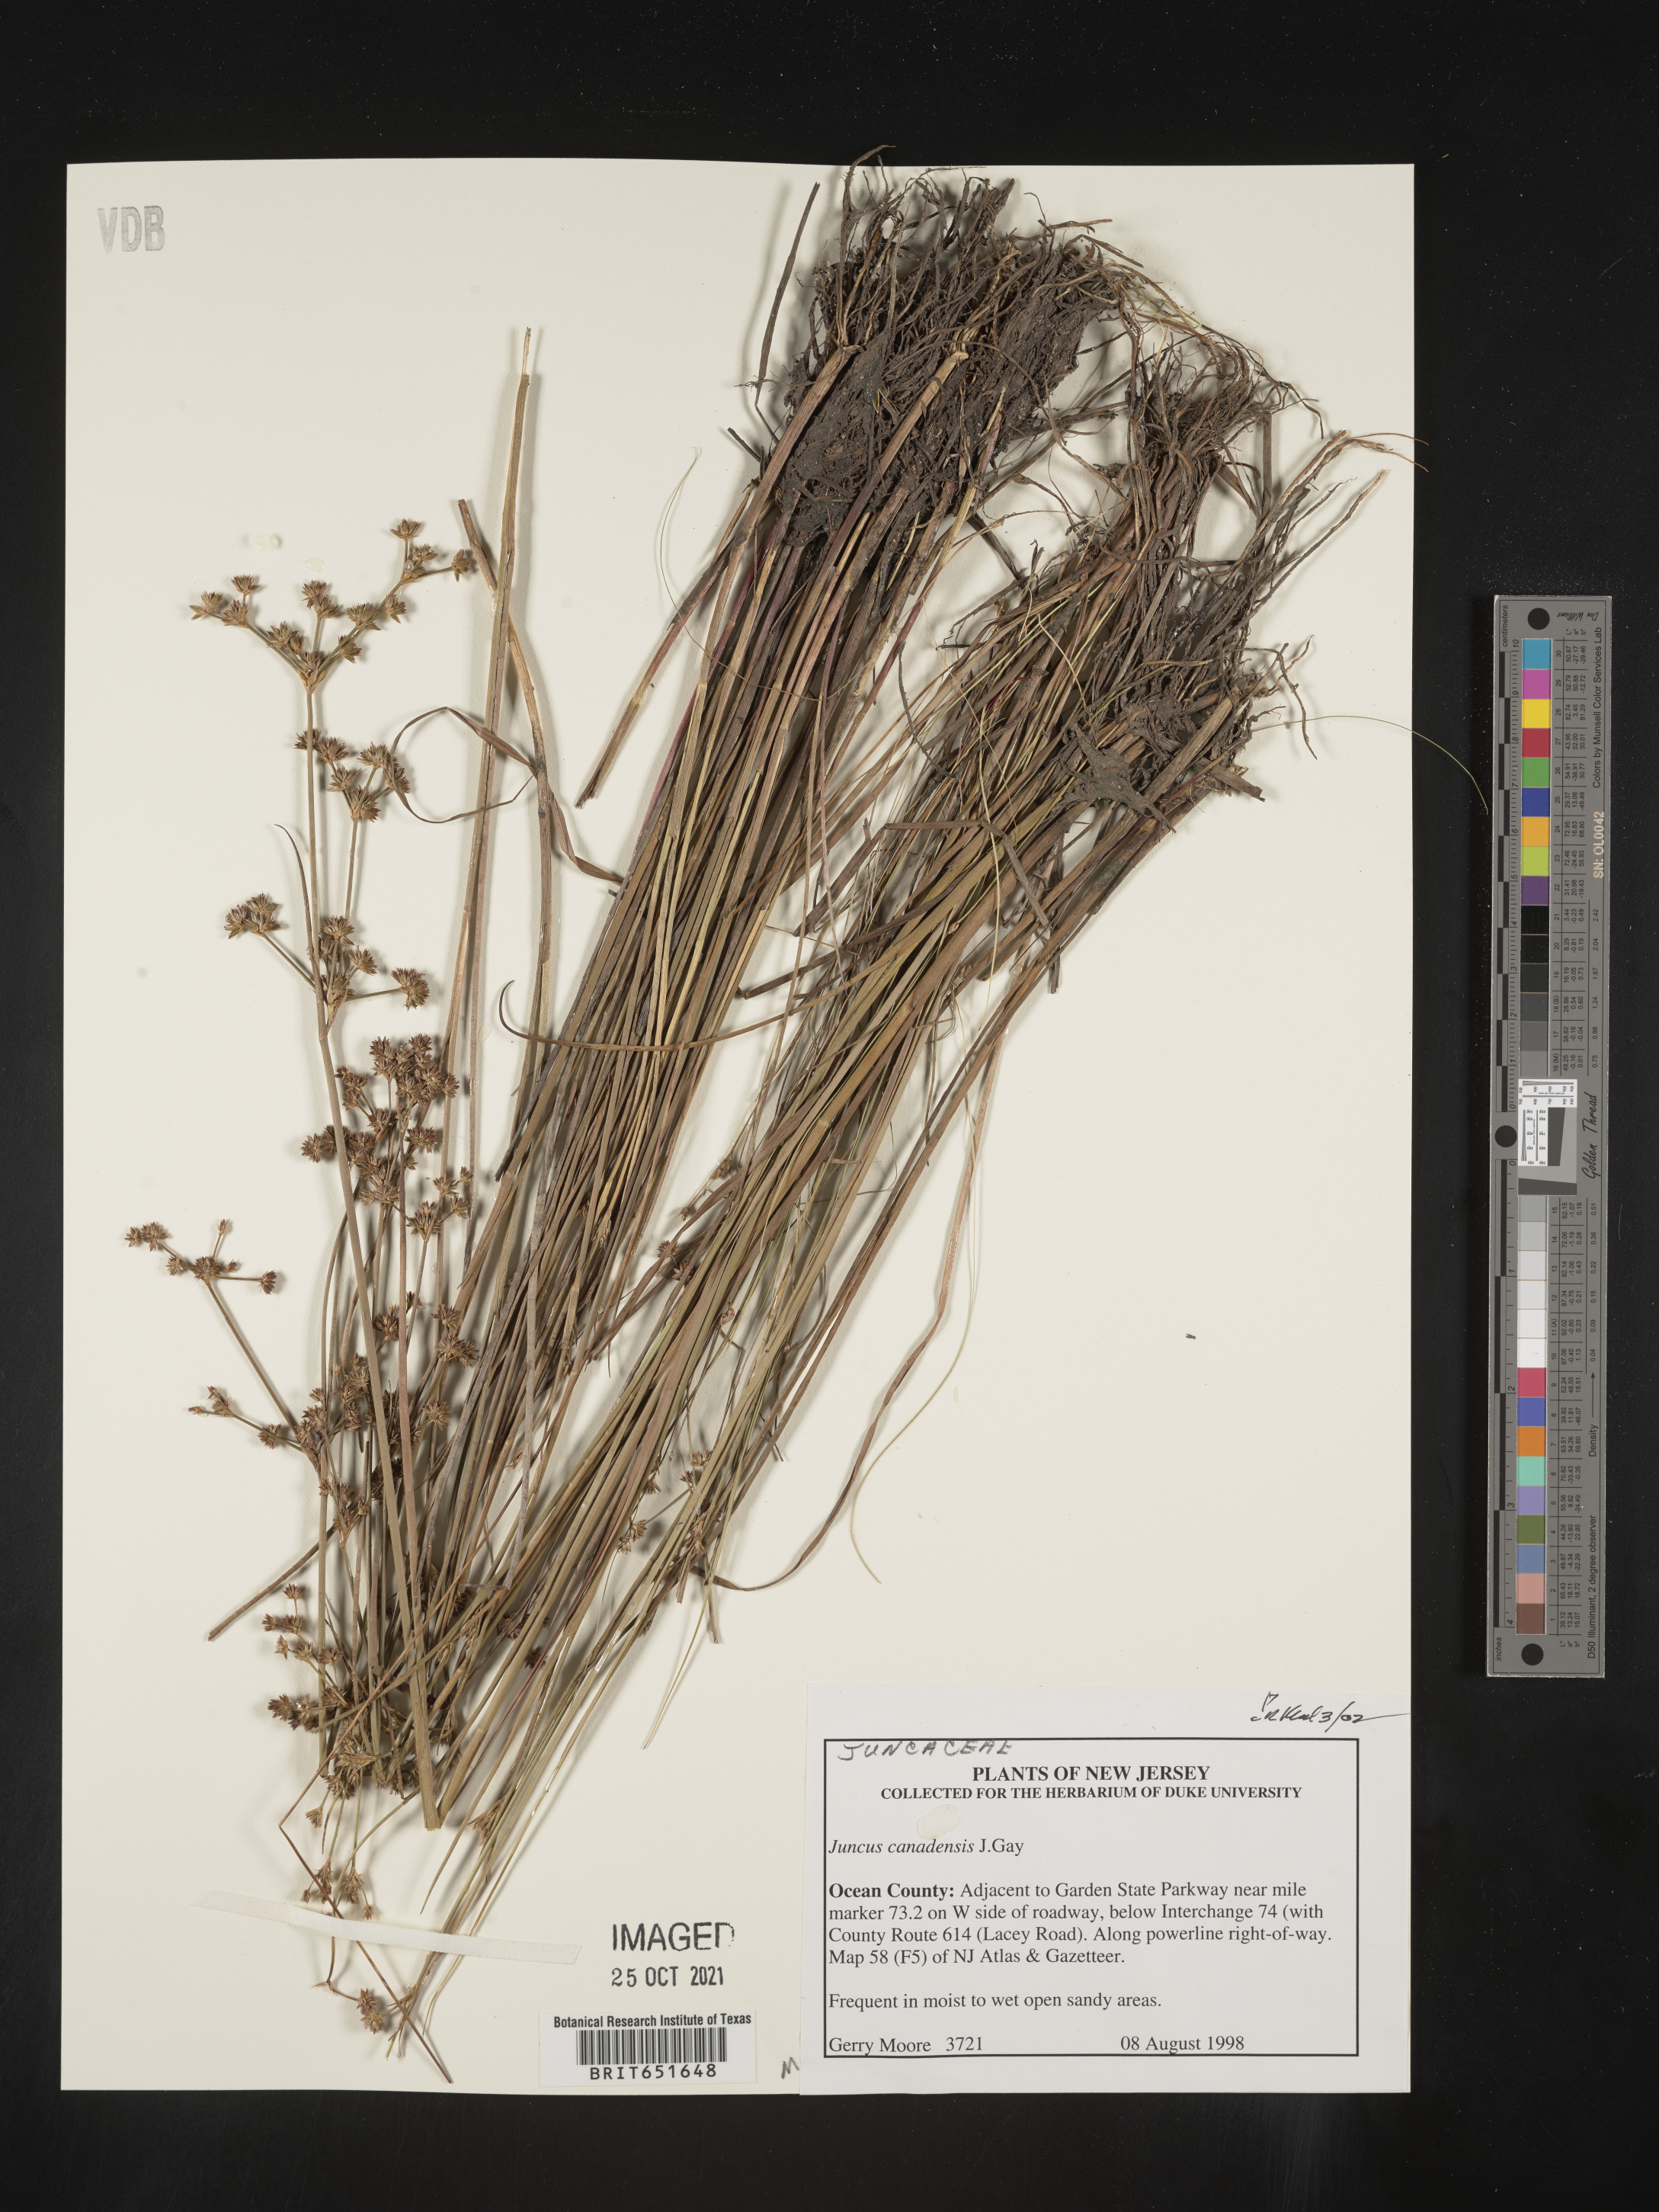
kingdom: Plantae
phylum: Tracheophyta
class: Liliopsida
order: Poales
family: Juncaceae
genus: Juncus
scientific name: Juncus canadensis
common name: Canada rush
